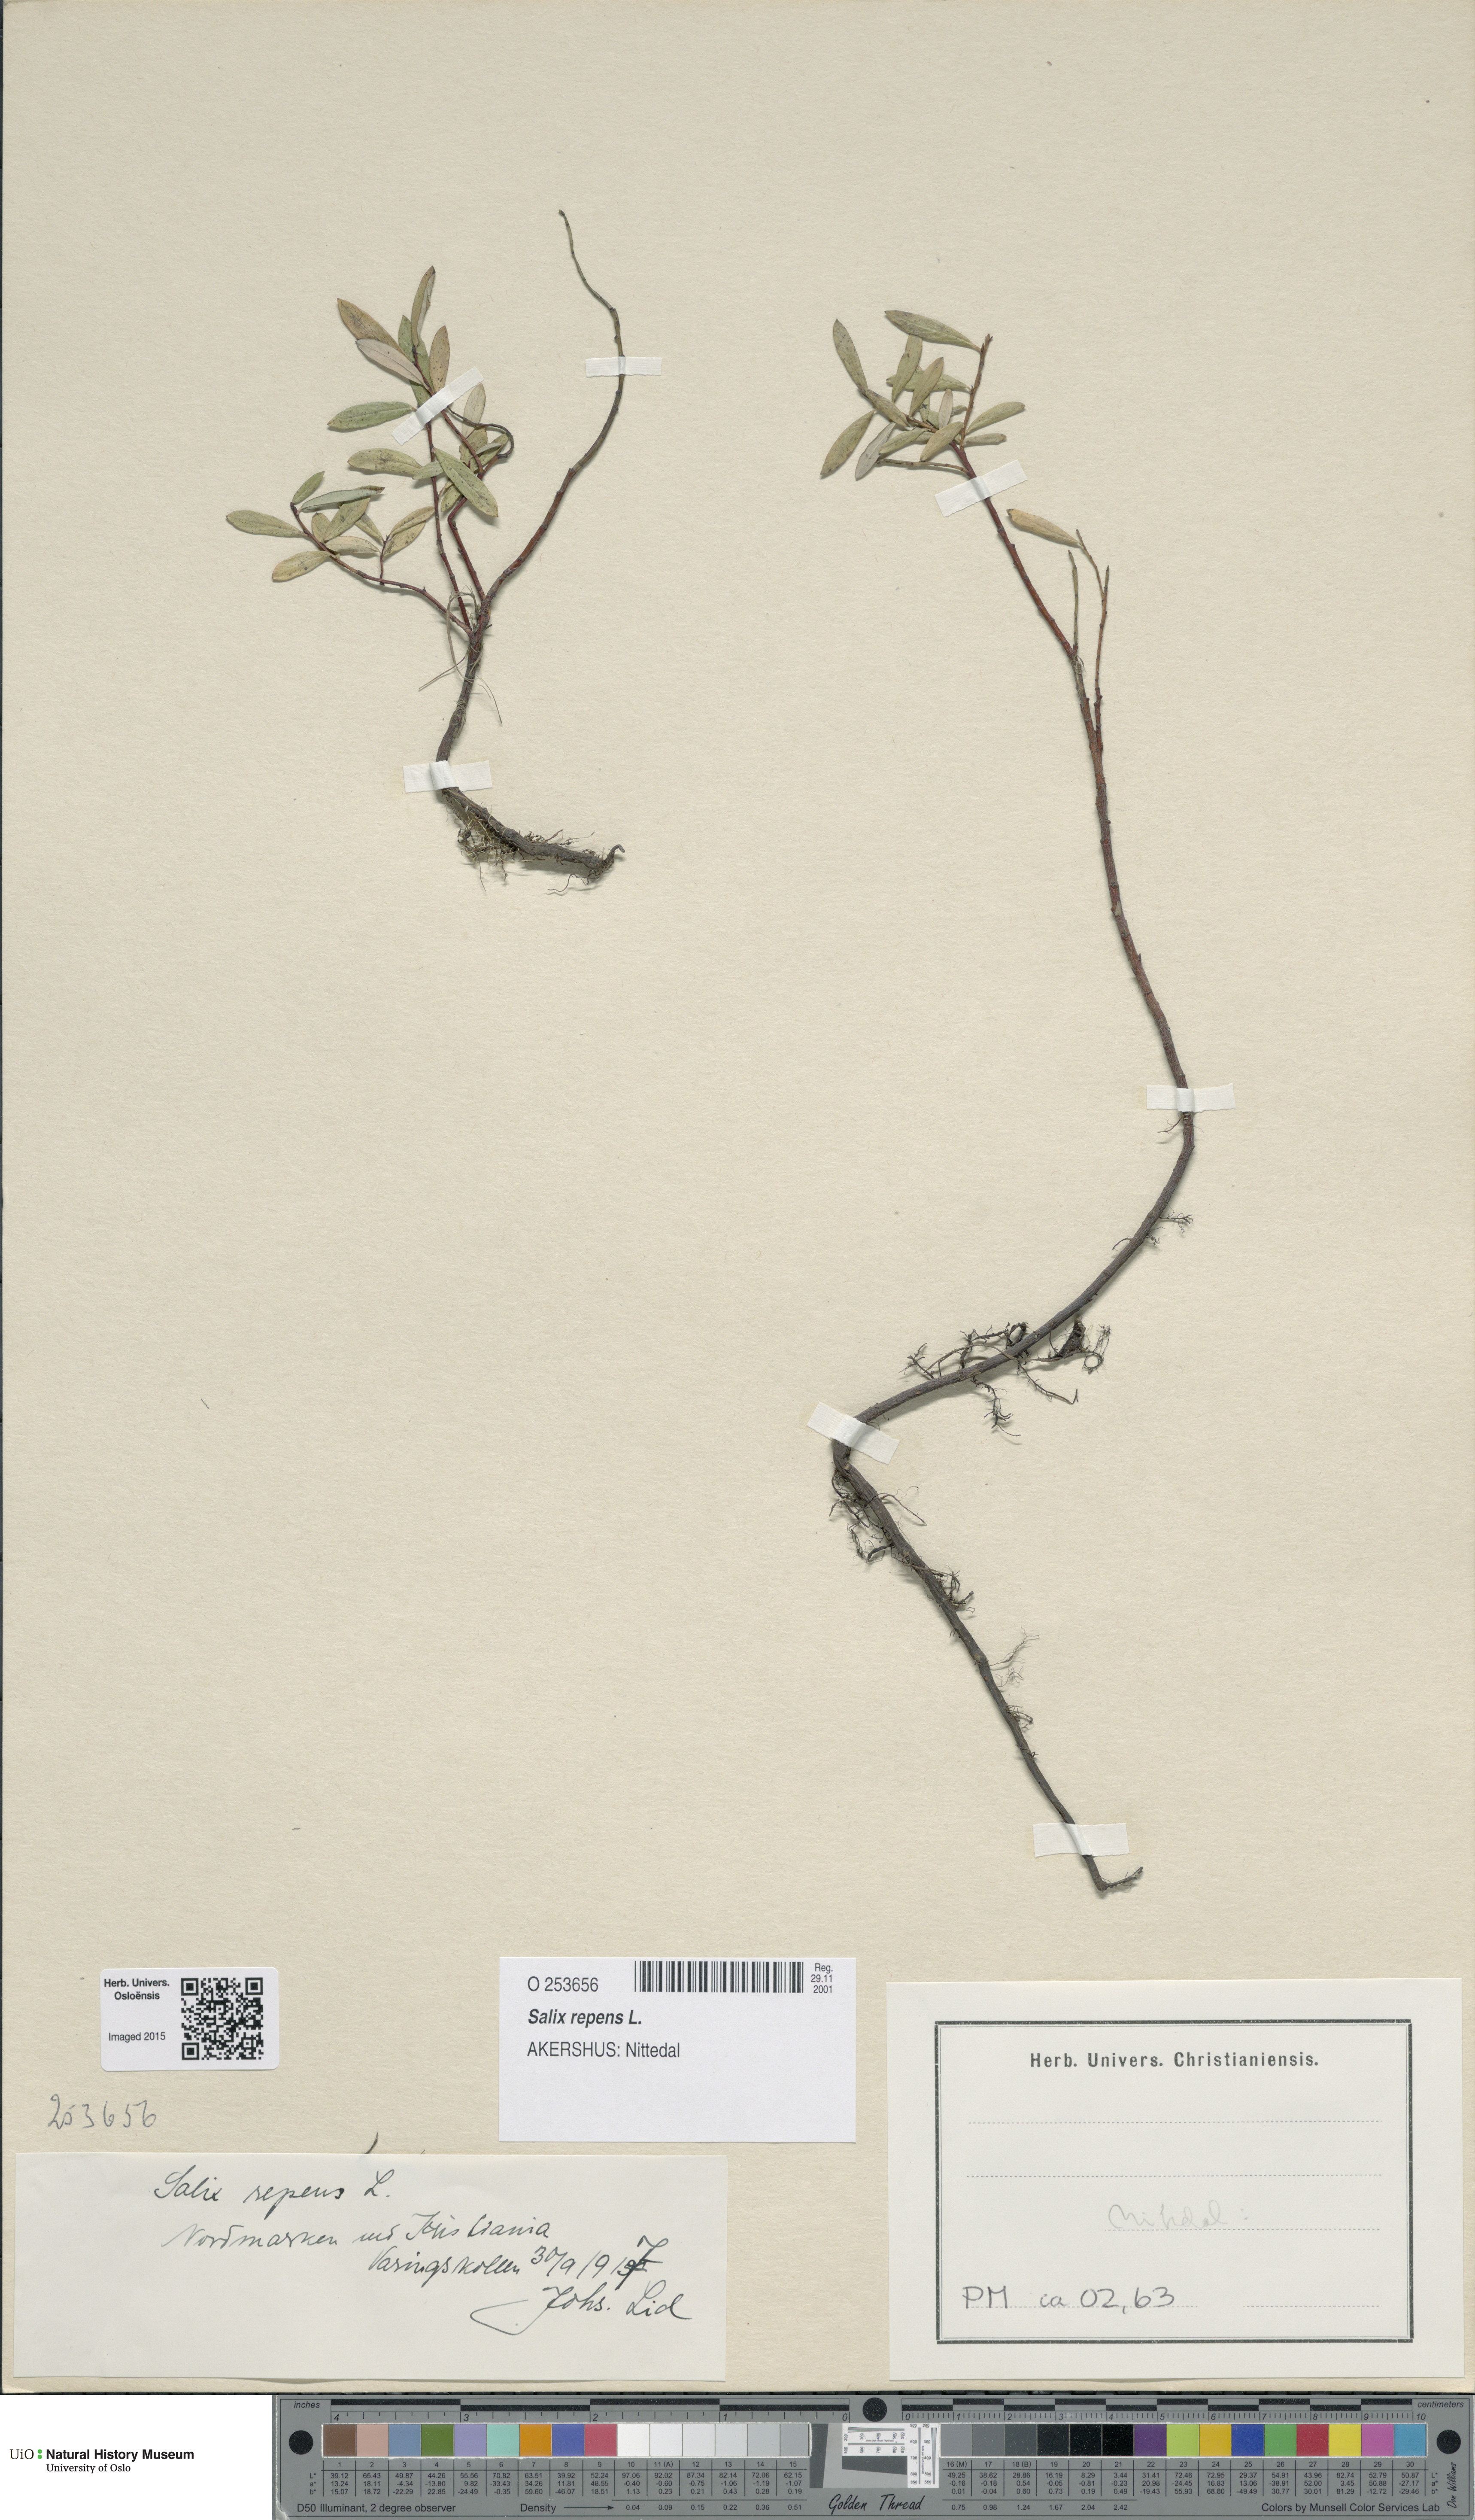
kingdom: Plantae
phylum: Tracheophyta
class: Magnoliopsida
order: Malpighiales
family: Salicaceae
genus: Salix
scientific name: Salix repens
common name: Creeping willow
